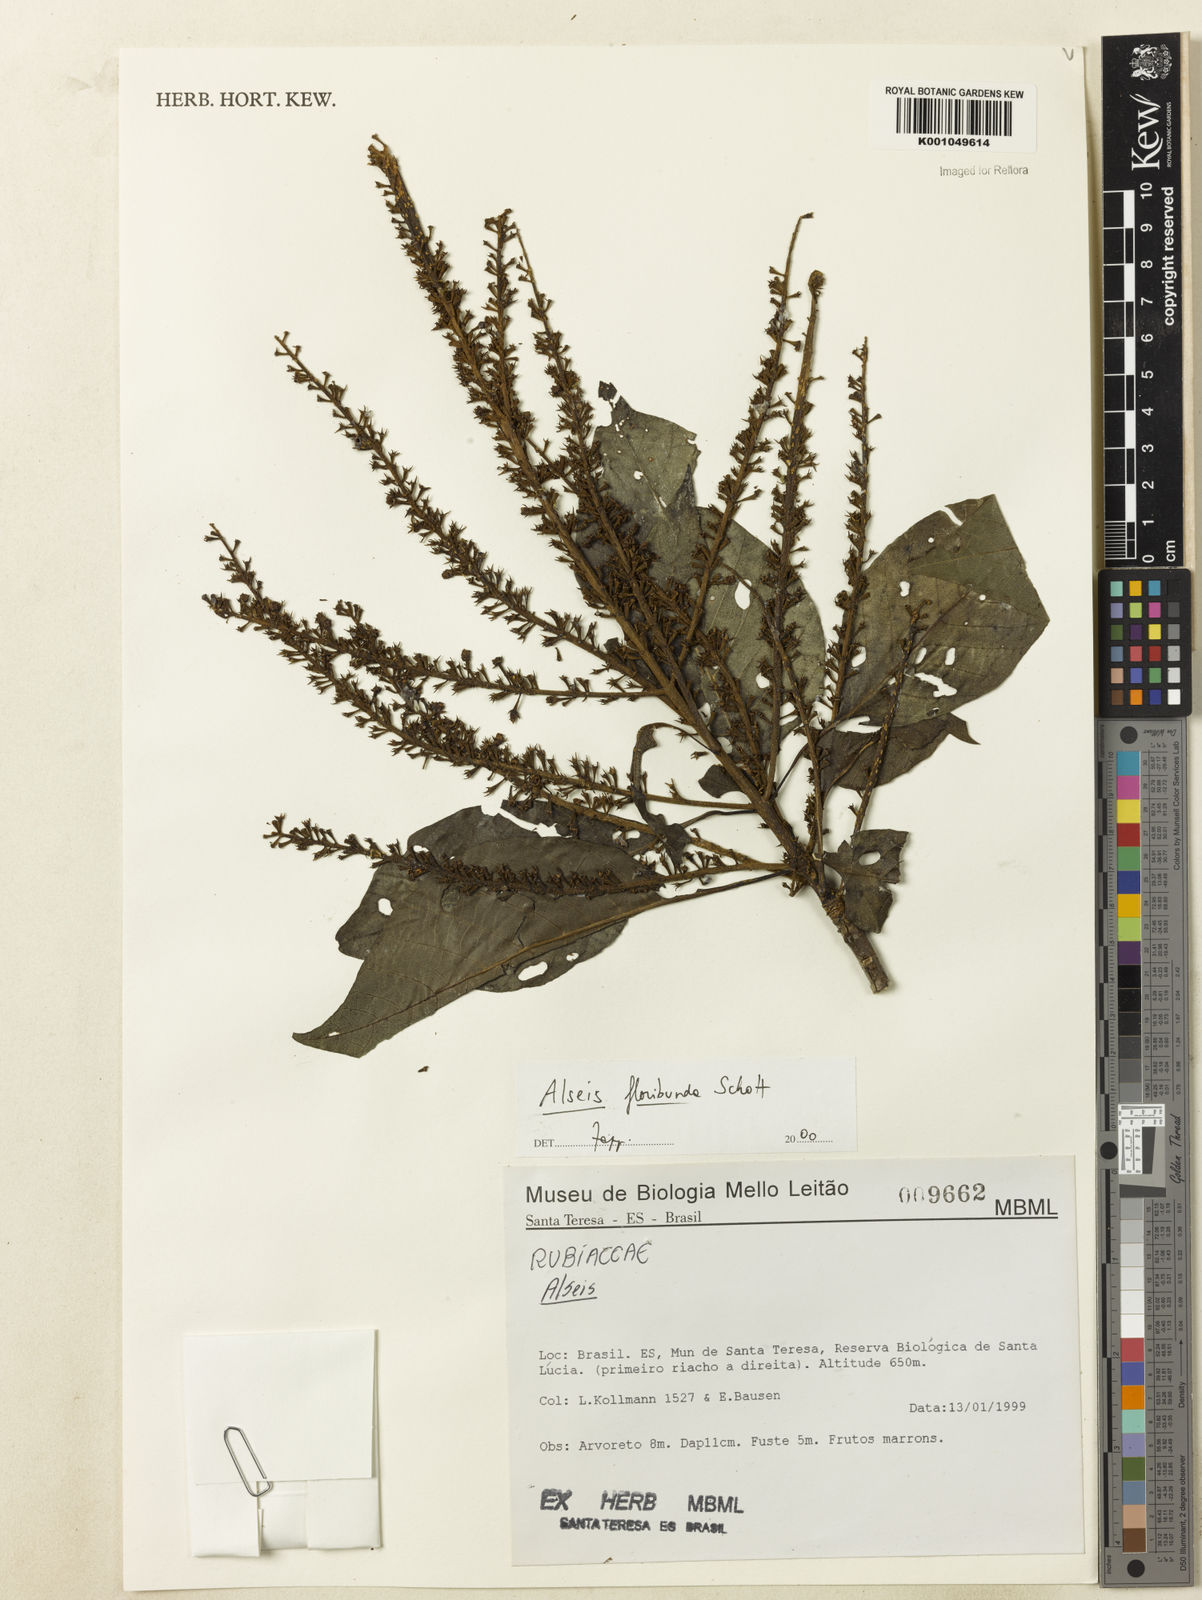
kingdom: Plantae
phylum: Tracheophyta
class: Magnoliopsida
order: Gentianales
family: Rubiaceae
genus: Alseis
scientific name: Alseis floribunda
